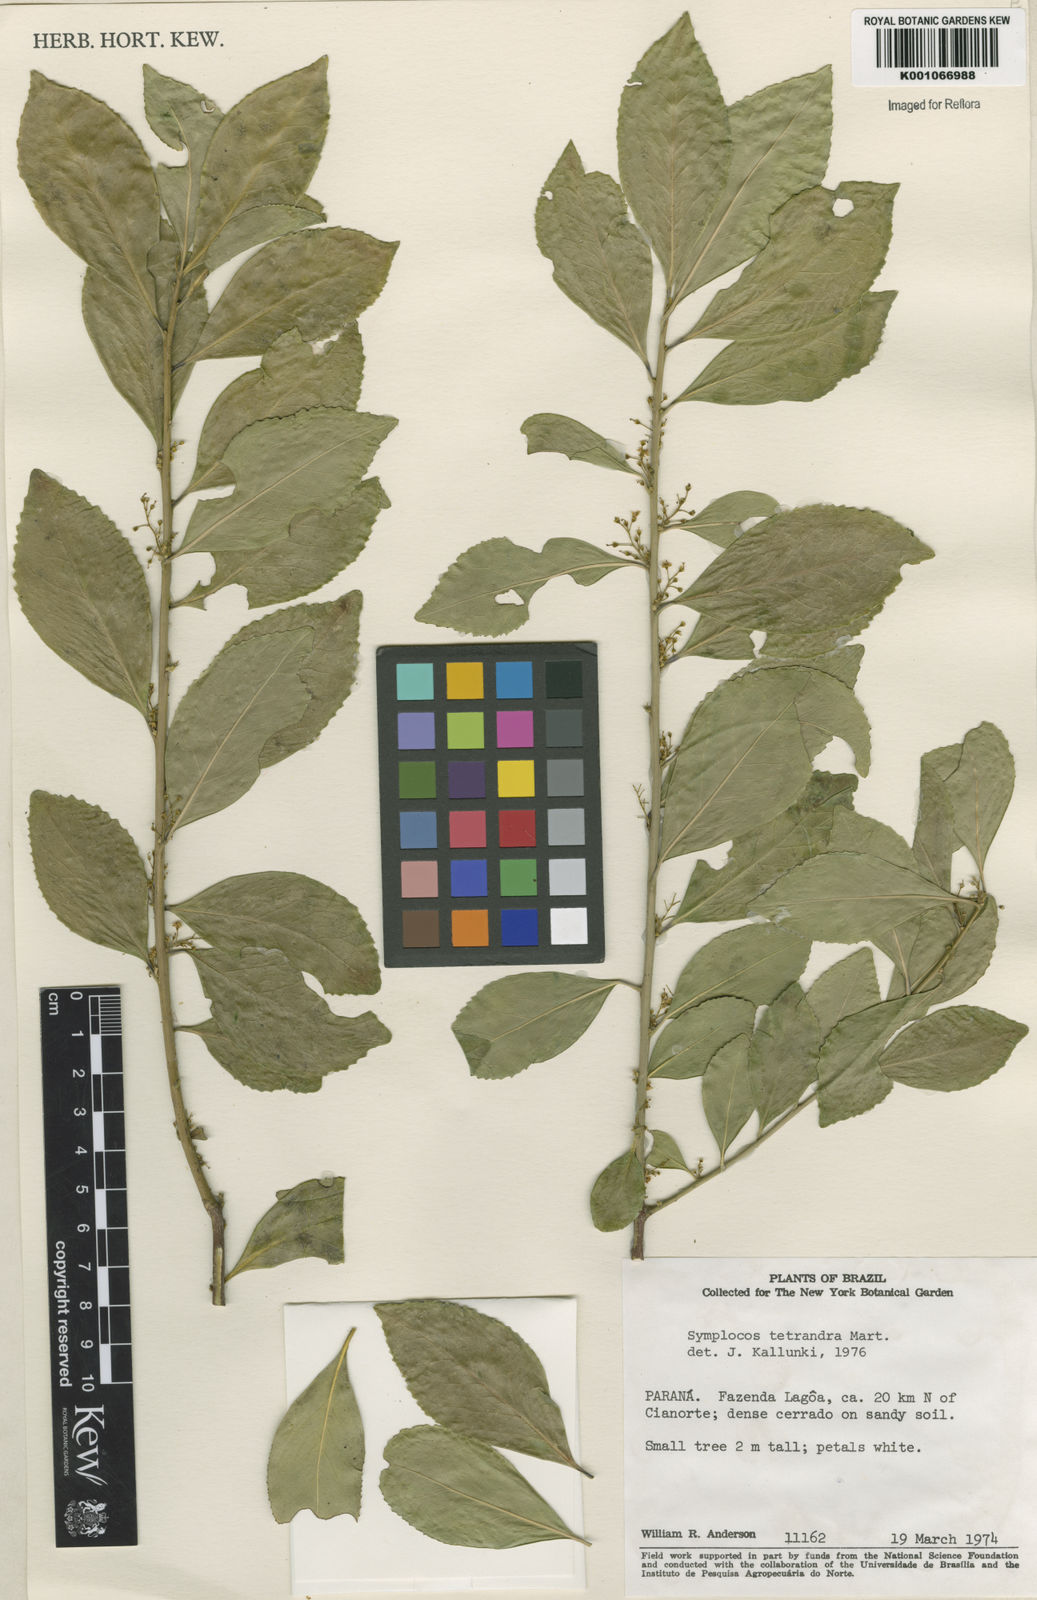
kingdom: Plantae
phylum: Tracheophyta
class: Magnoliopsida
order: Ericales
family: Symplocaceae
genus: Symplocos
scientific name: Symplocos
